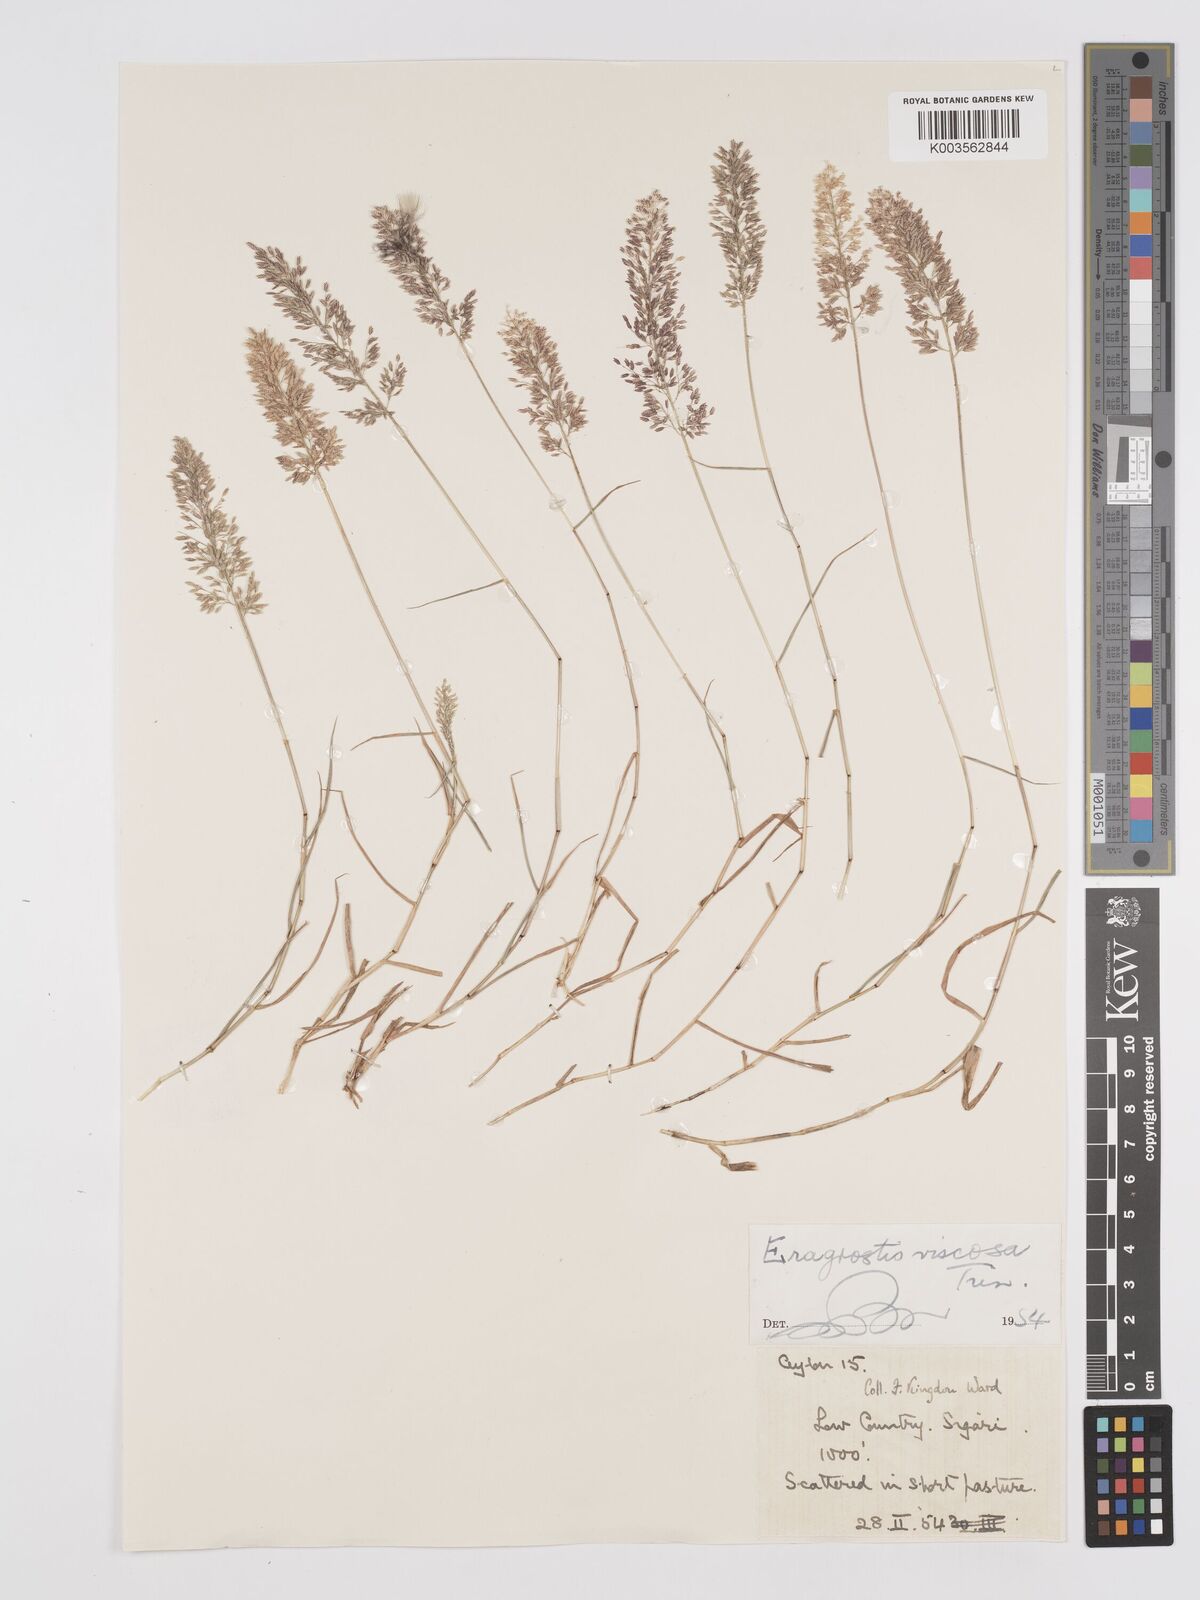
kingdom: Plantae
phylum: Tracheophyta
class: Liliopsida
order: Poales
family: Poaceae
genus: Eragrostis
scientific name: Eragrostis viscosa
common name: Sticky love grass
